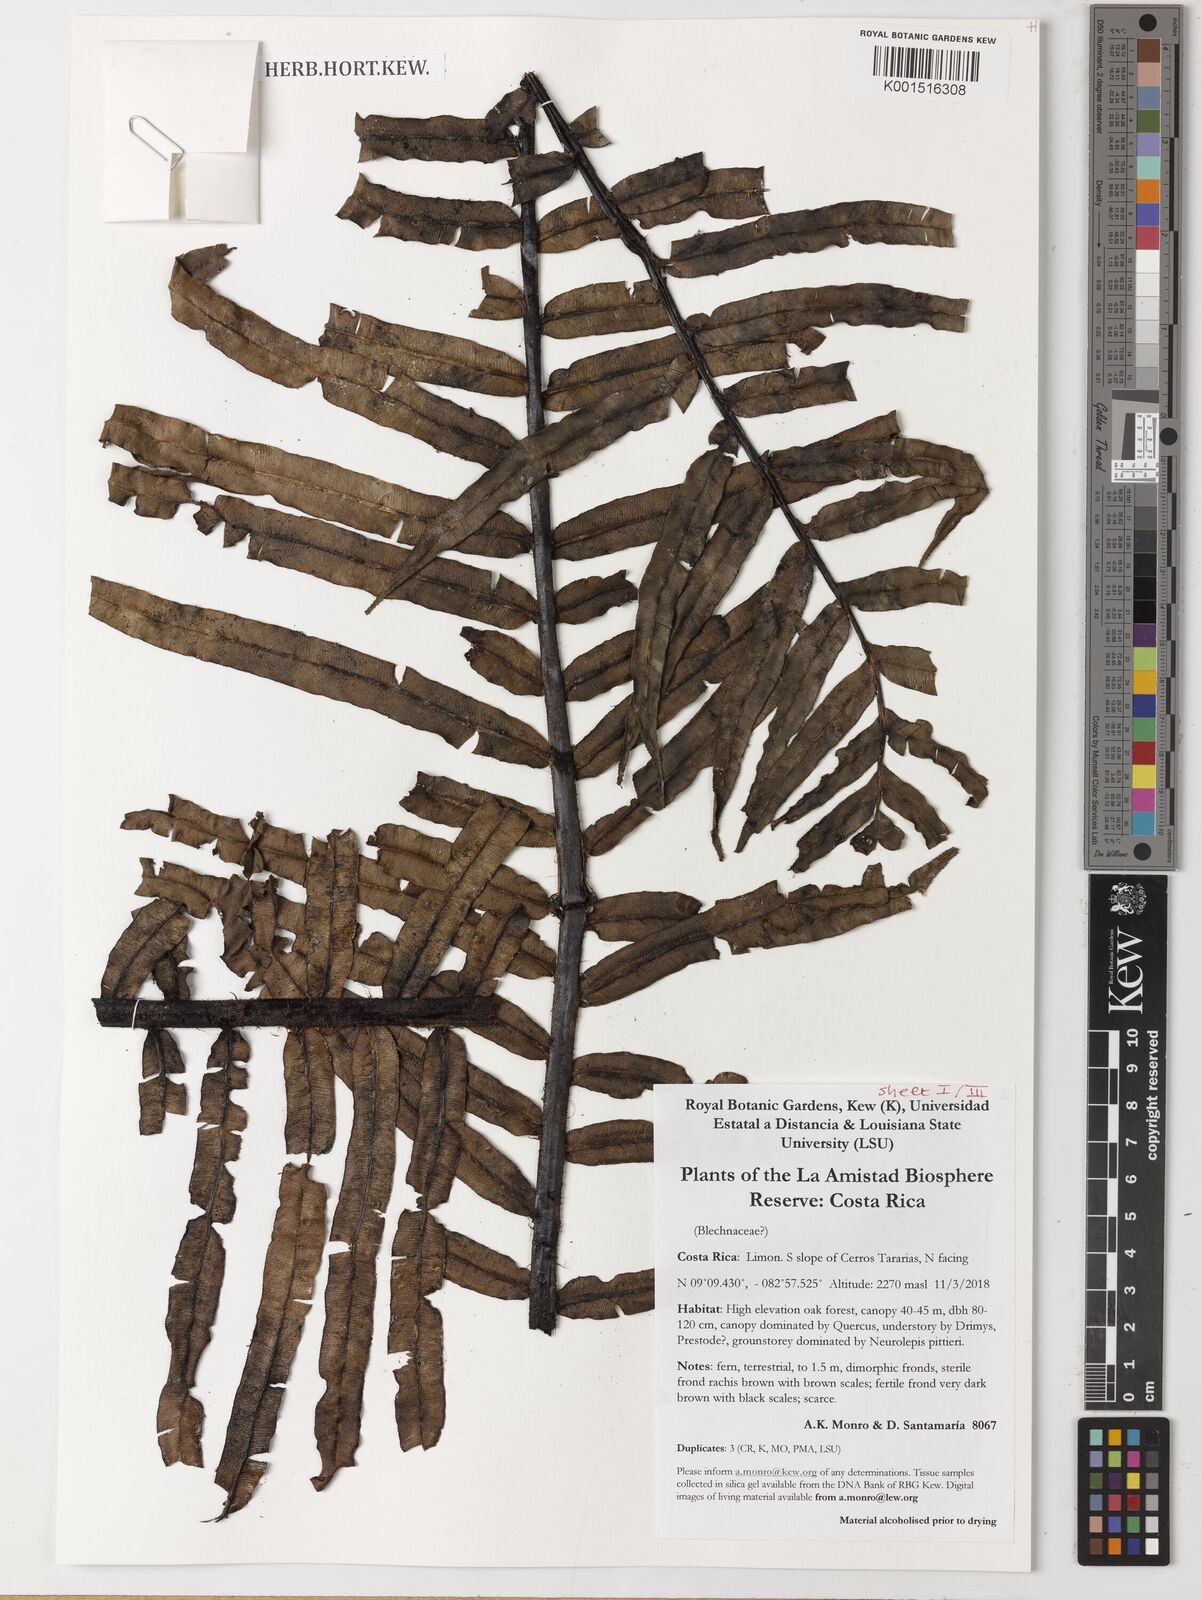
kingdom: Plantae
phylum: Tracheophyta
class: Polypodiopsida
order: Polypodiales
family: Blechnaceae
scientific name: Blechnaceae
